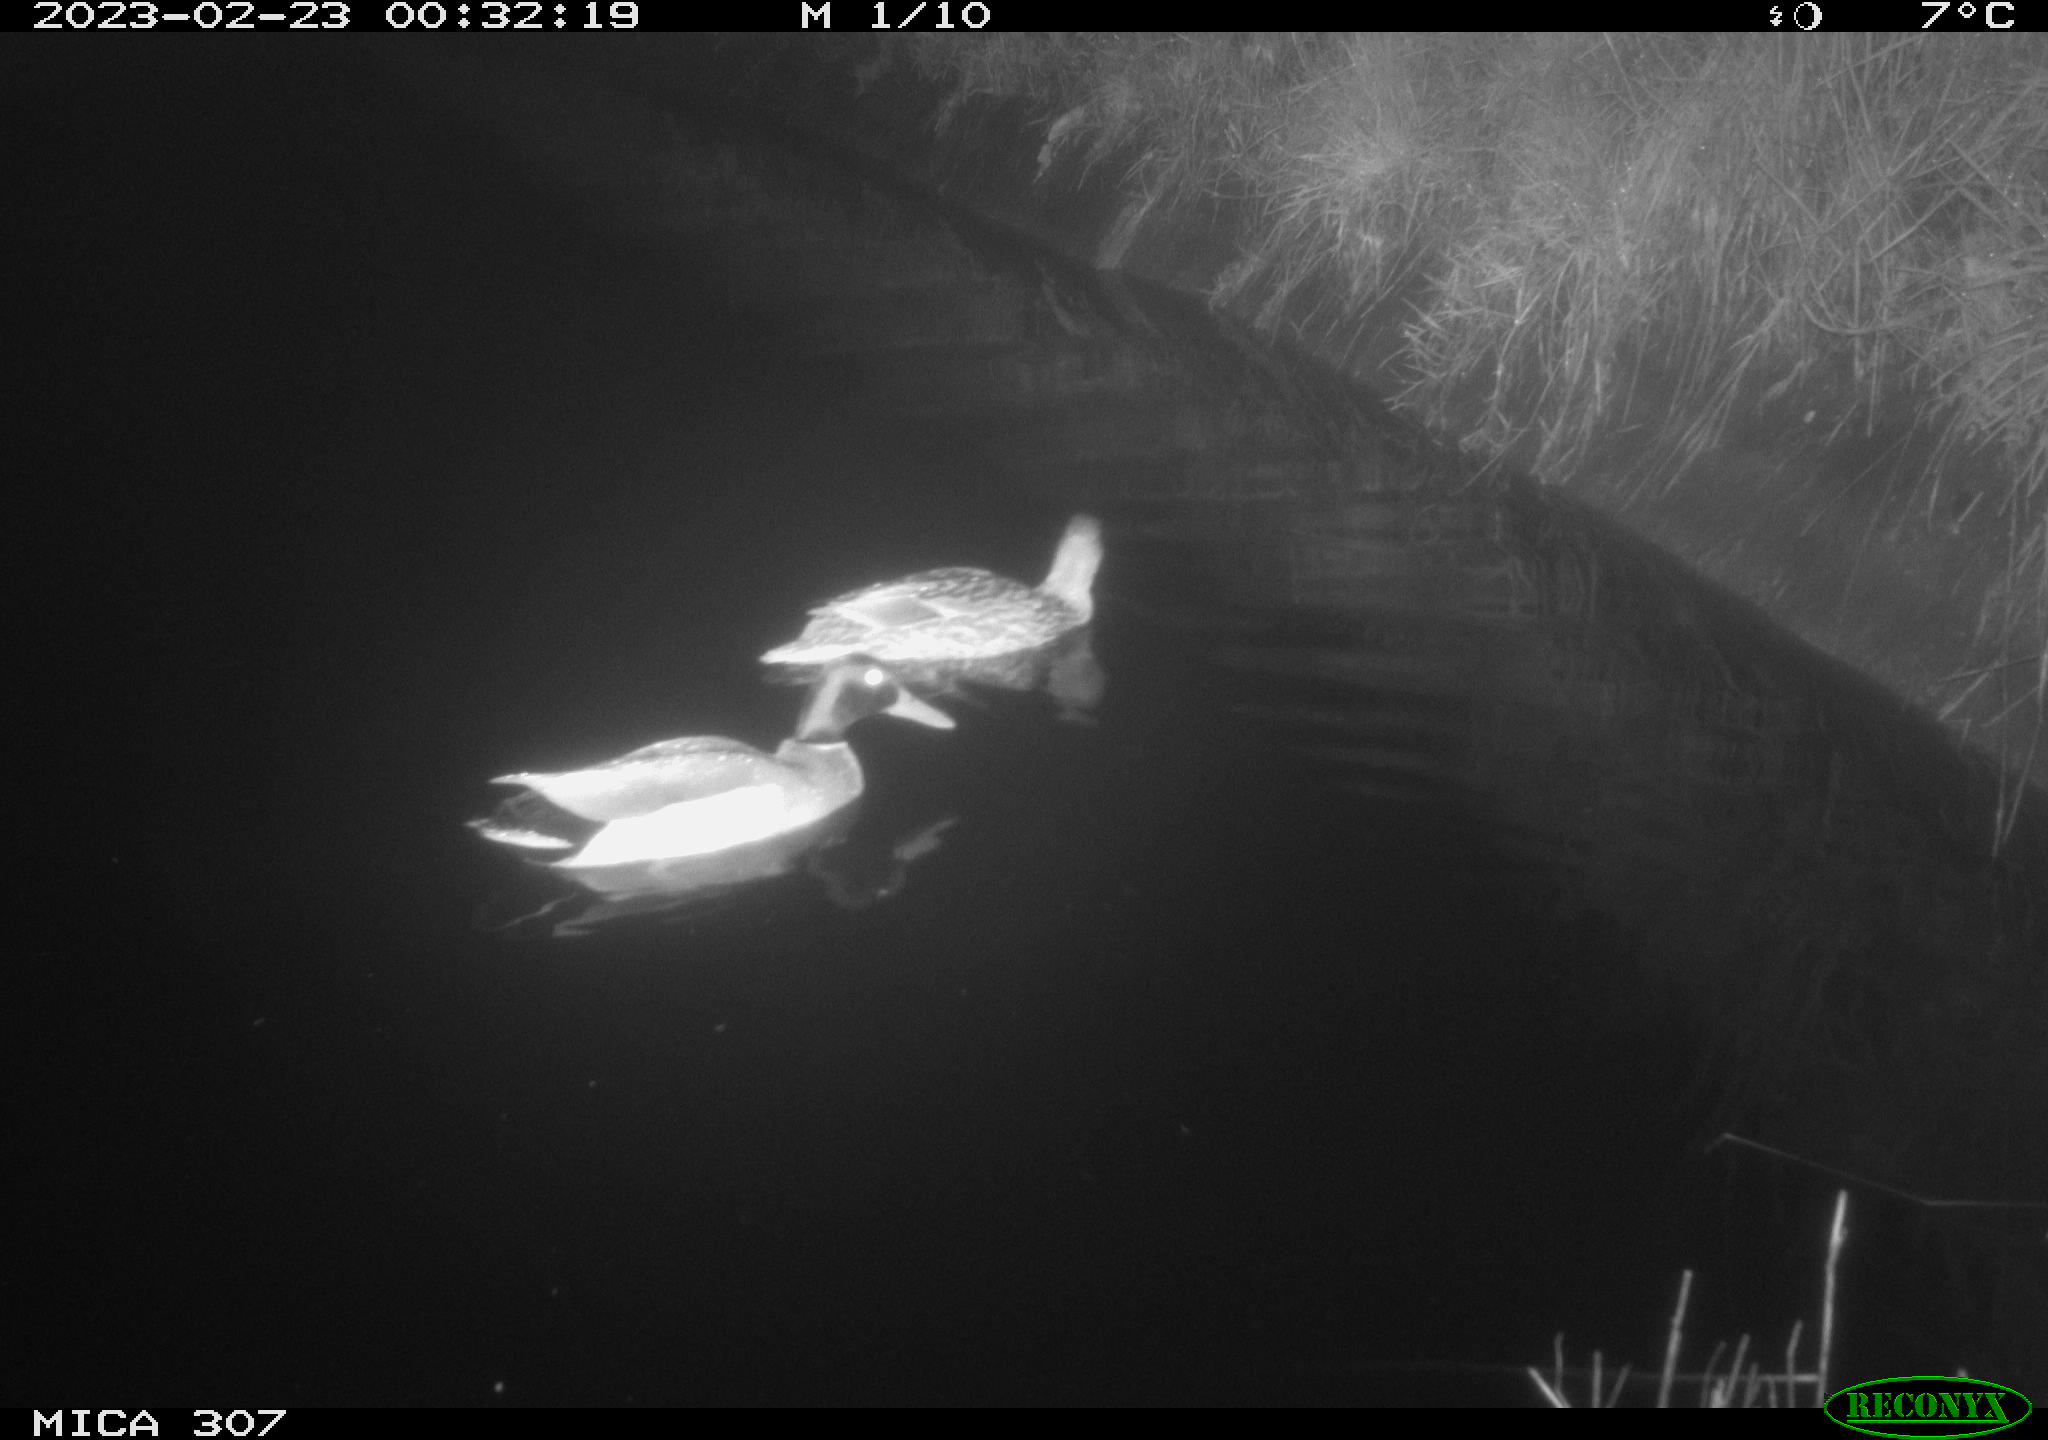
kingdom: Animalia
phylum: Chordata
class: Aves
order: Anseriformes
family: Anatidae
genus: Anas
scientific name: Anas
